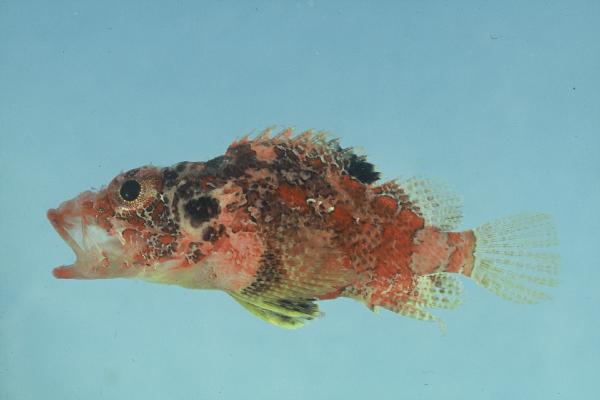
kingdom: Animalia
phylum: Chordata
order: Scorpaeniformes
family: Scorpaenidae
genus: Scorpaenodes
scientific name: Scorpaenodes varipinnis
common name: Blotchfin scorpionfish
